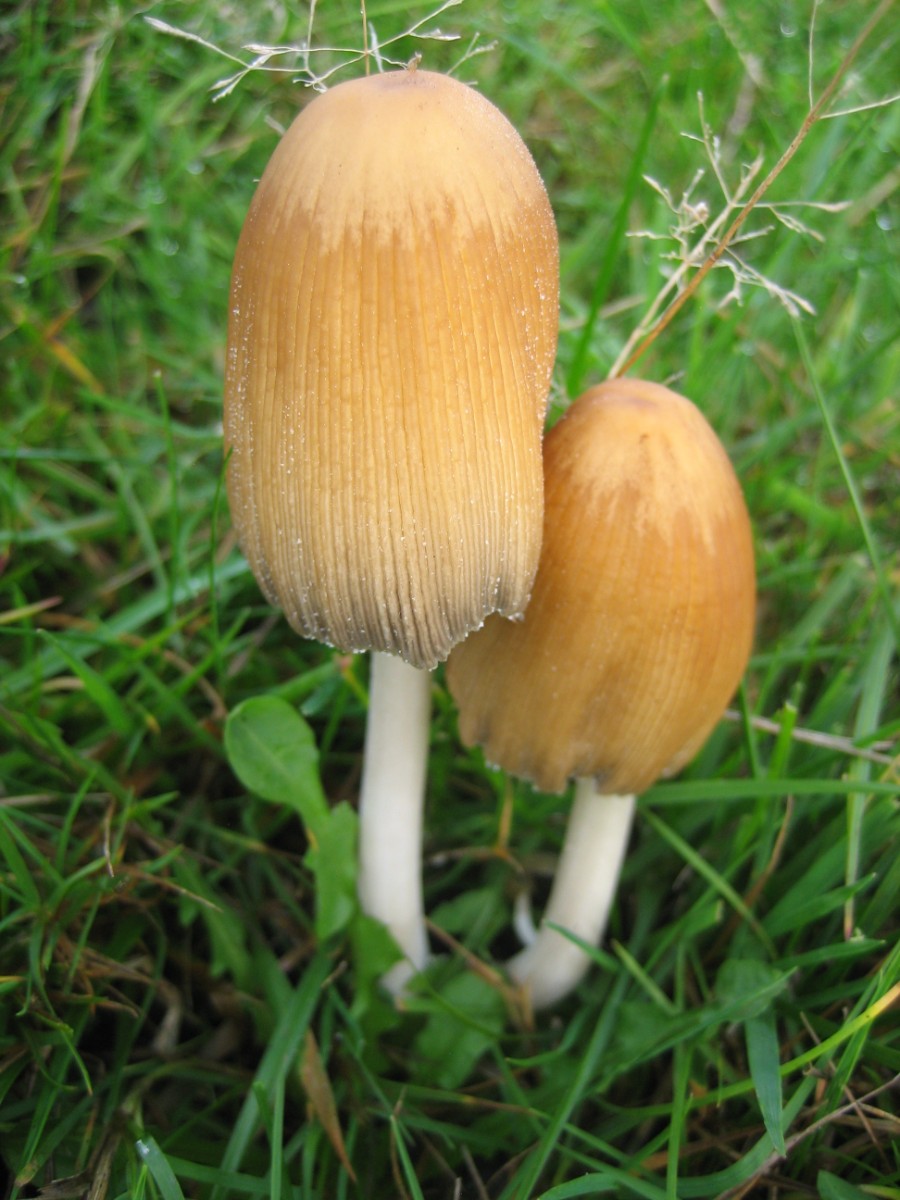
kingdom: Fungi
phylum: Basidiomycota
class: Agaricomycetes
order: Agaricales
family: Psathyrellaceae
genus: Coprinellus
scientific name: Coprinellus
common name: blækhat
